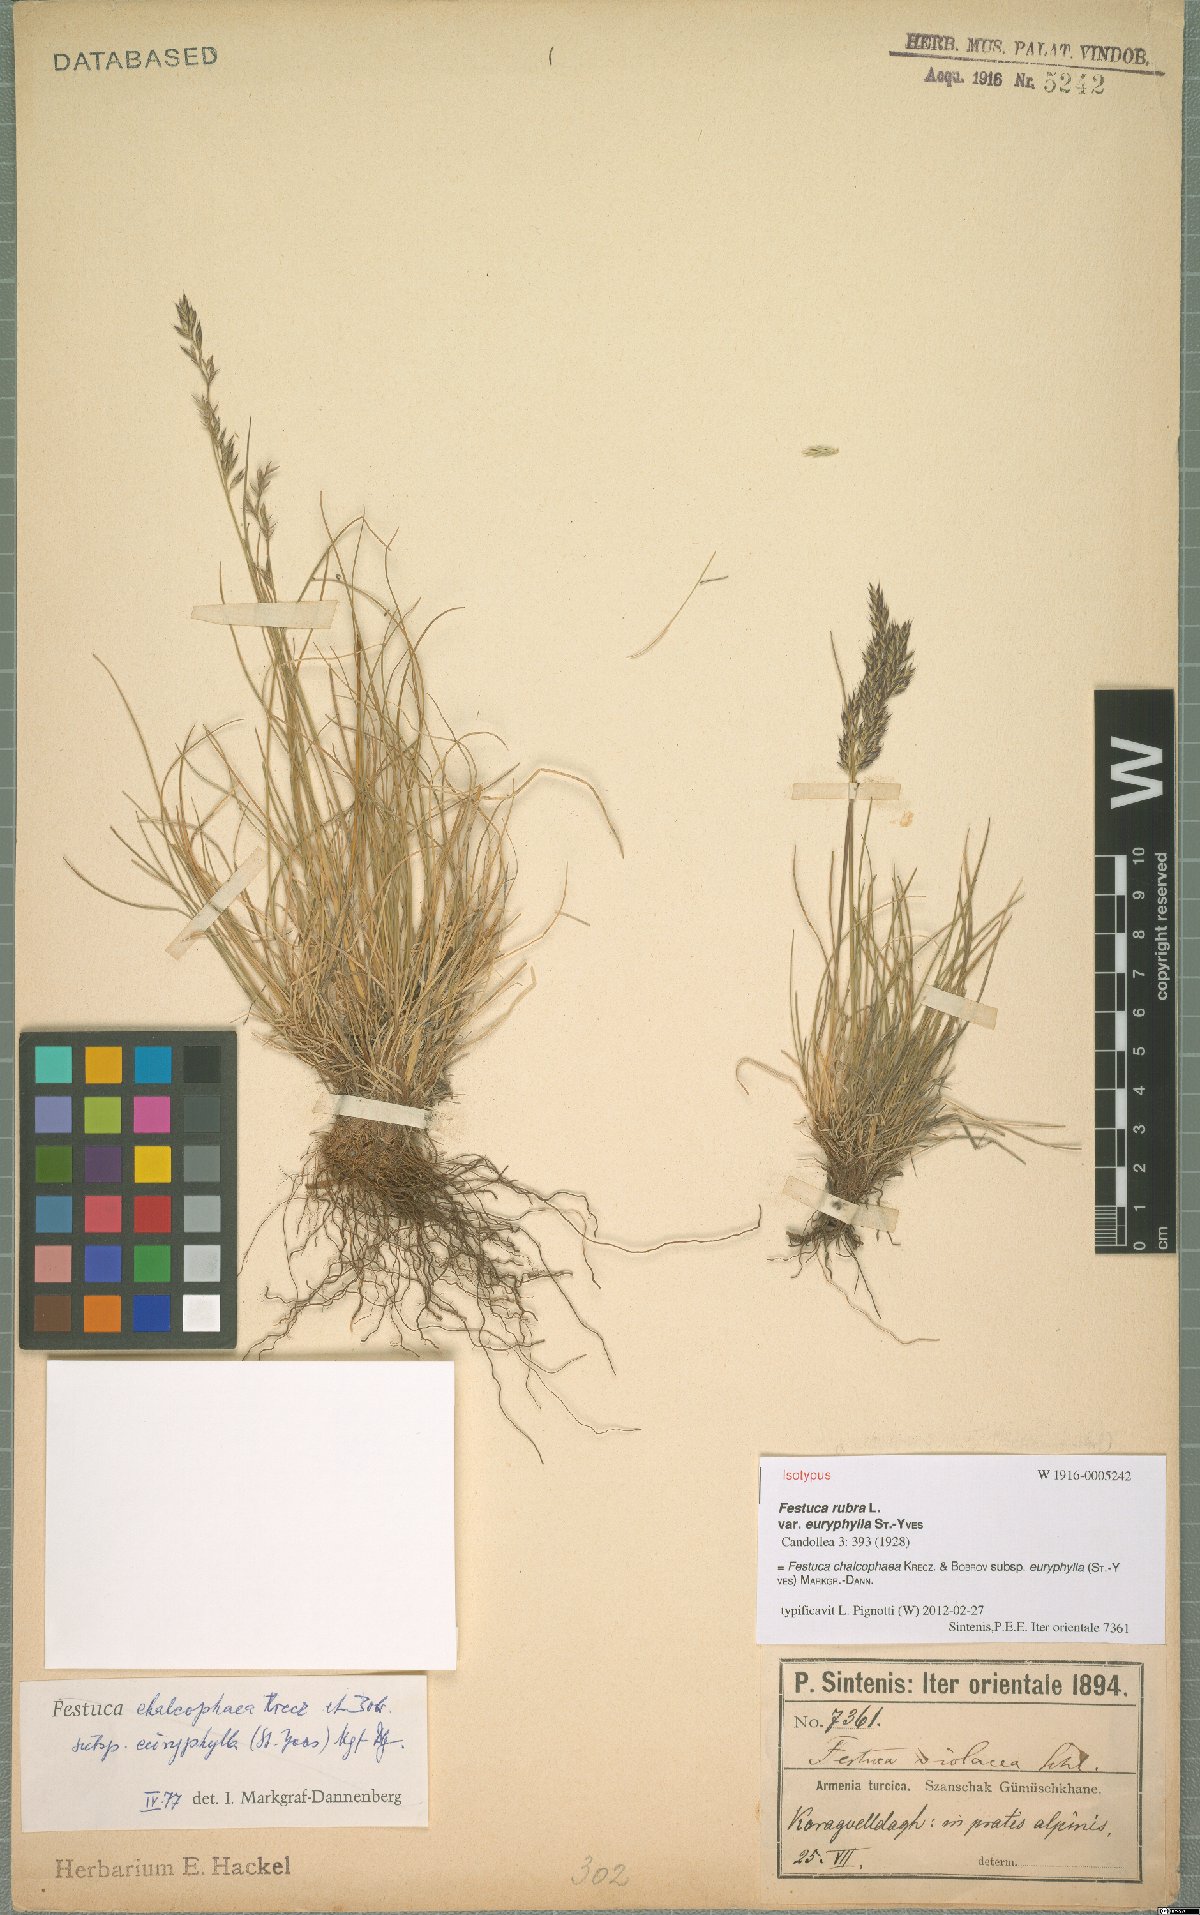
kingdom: Plantae
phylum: Tracheophyta
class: Liliopsida
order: Poales
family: Poaceae
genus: Festuca
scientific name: Festuca chalcophaea
